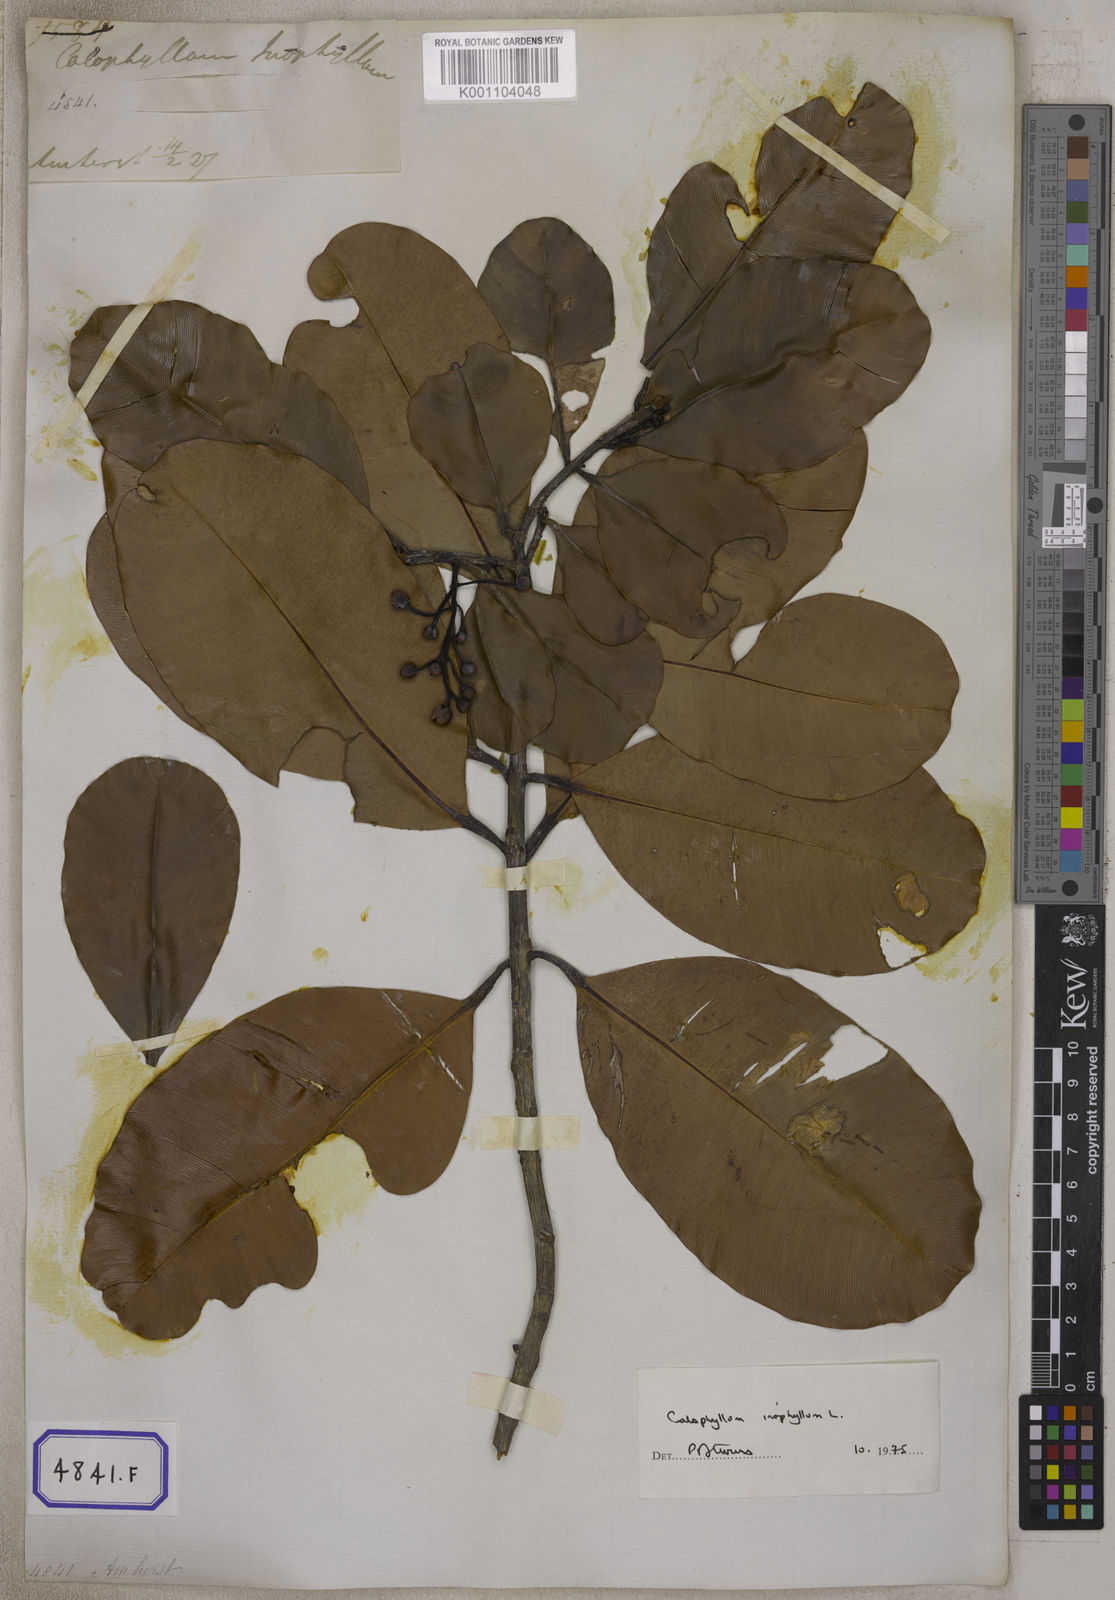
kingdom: Plantae
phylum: Tracheophyta
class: Magnoliopsida
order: Malpighiales
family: Calophyllaceae
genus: Calophyllum
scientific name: Calophyllum inophyllum
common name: Alexandrian laurel
